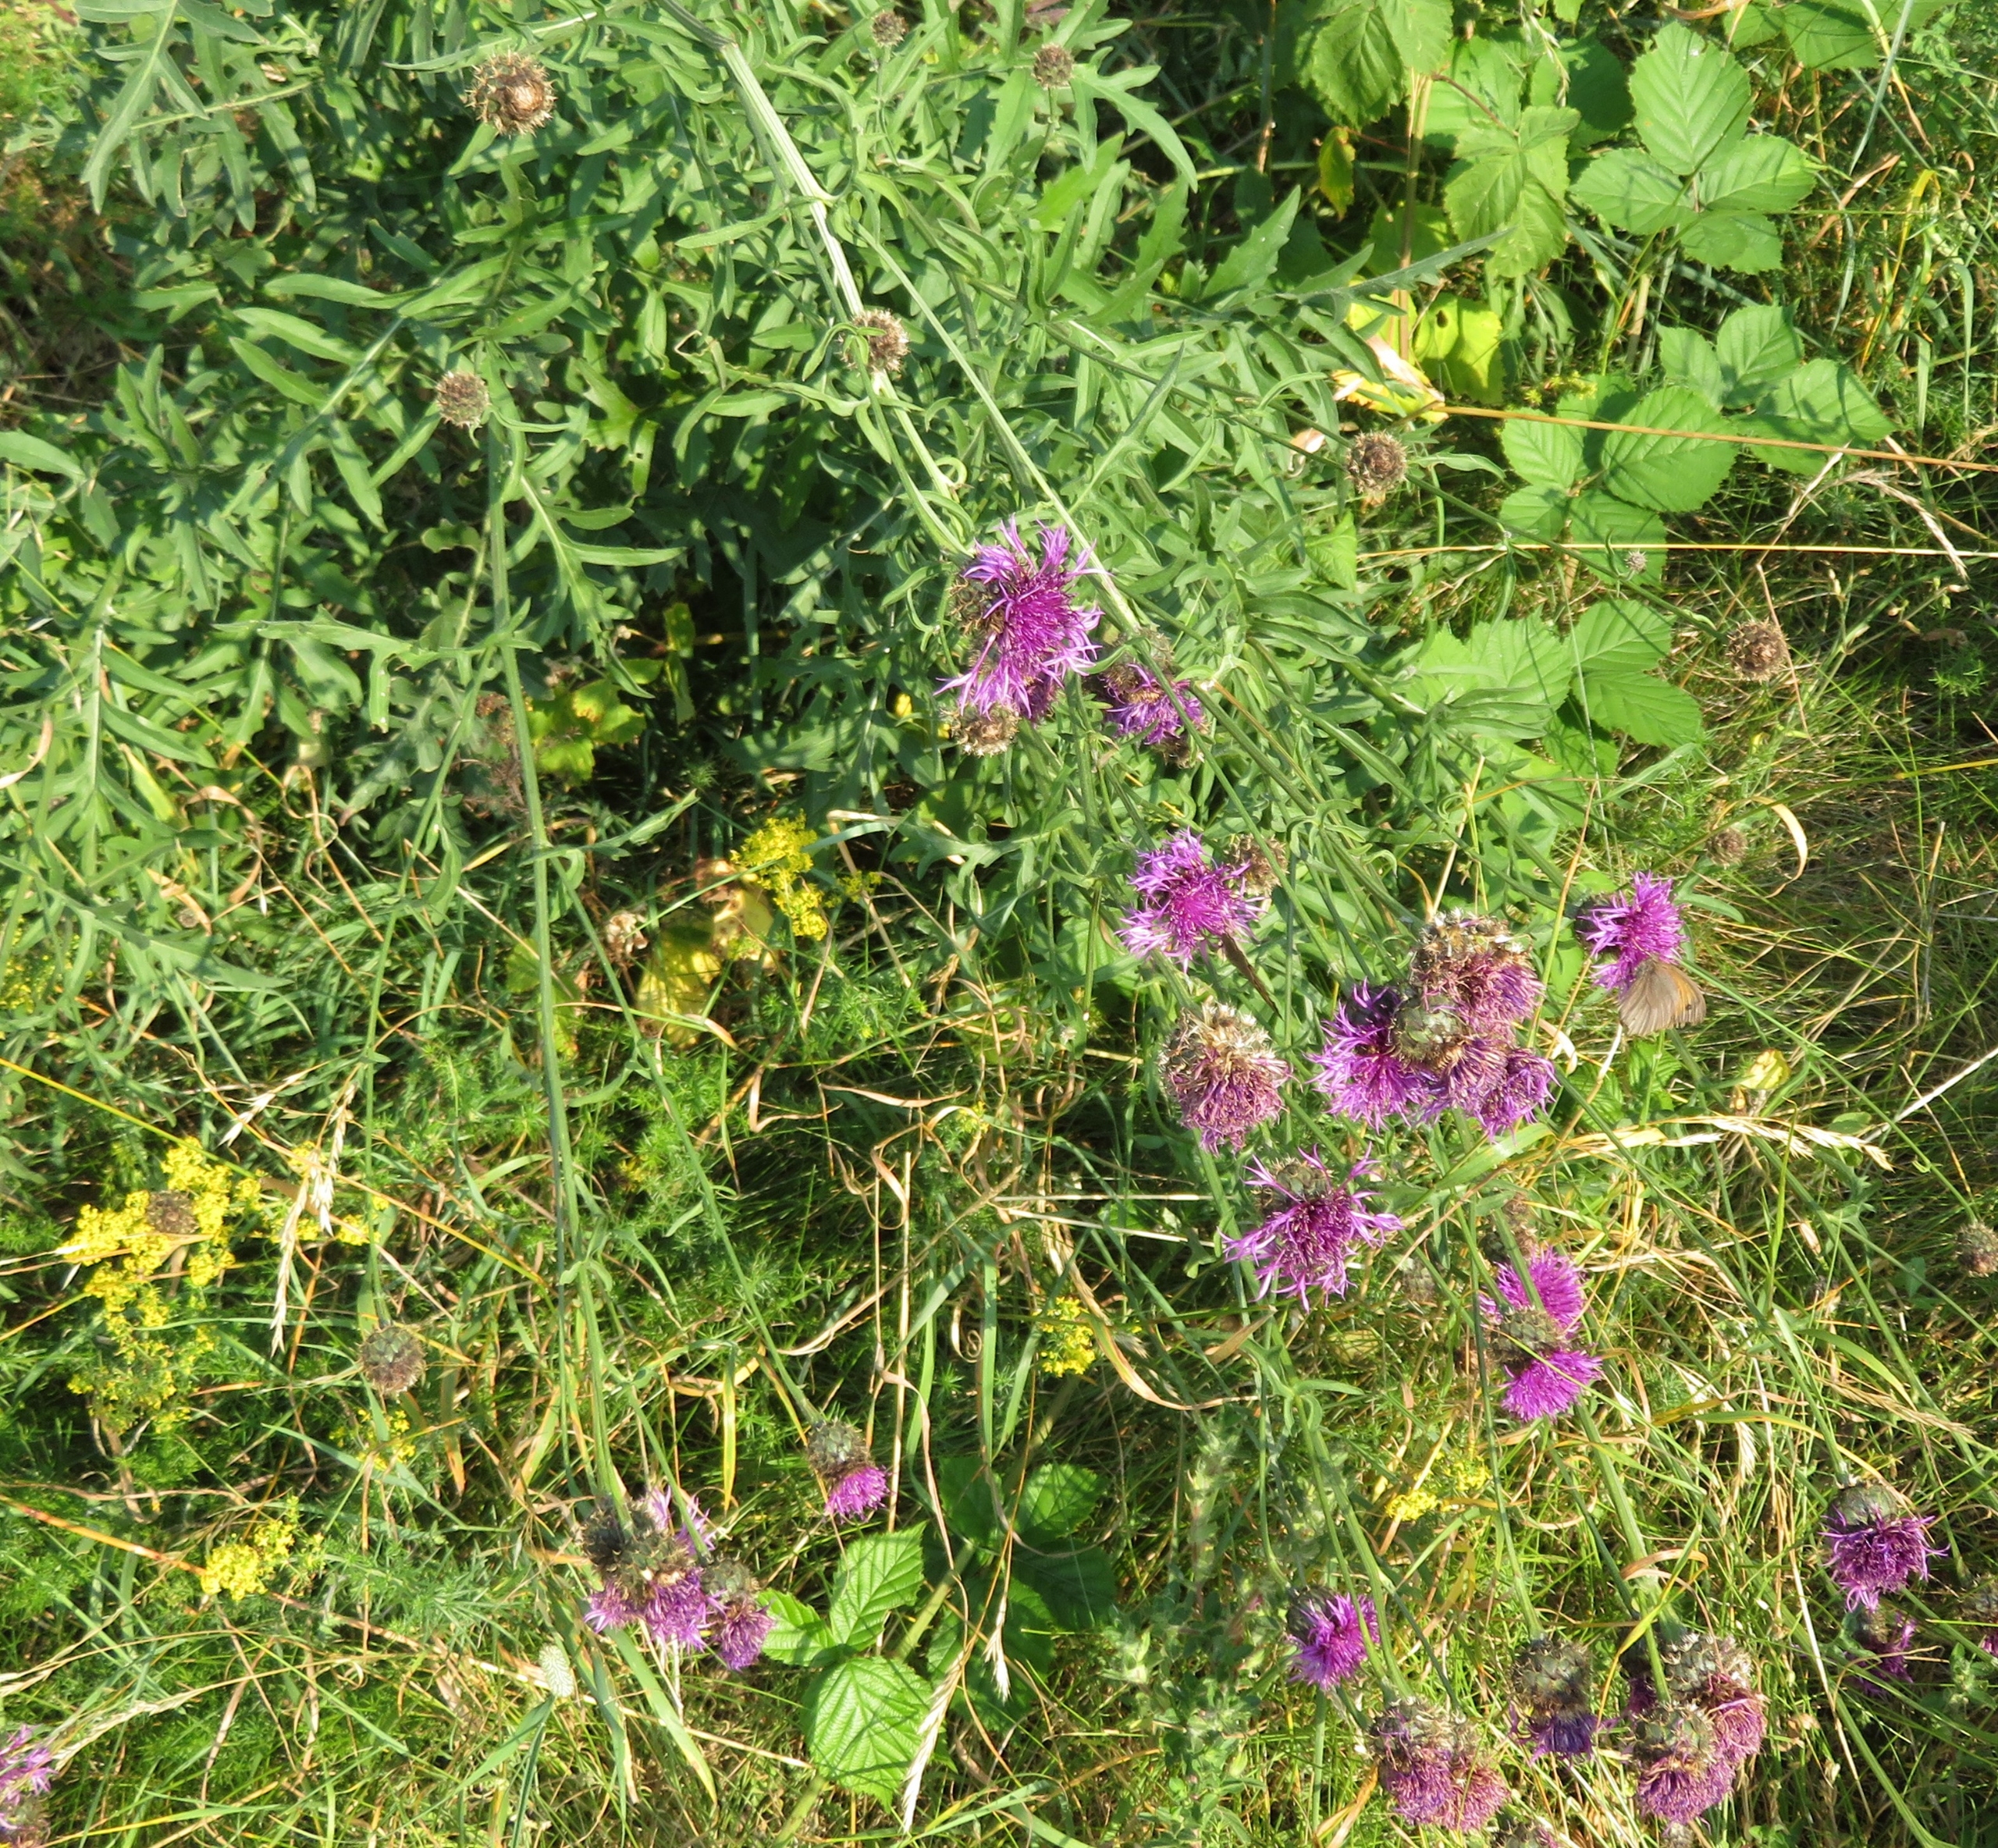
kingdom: Plantae
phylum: Tracheophyta
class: Magnoliopsida
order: Asterales
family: Asteraceae
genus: Centaurea
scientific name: Centaurea scabiosa
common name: Stor knopurt
